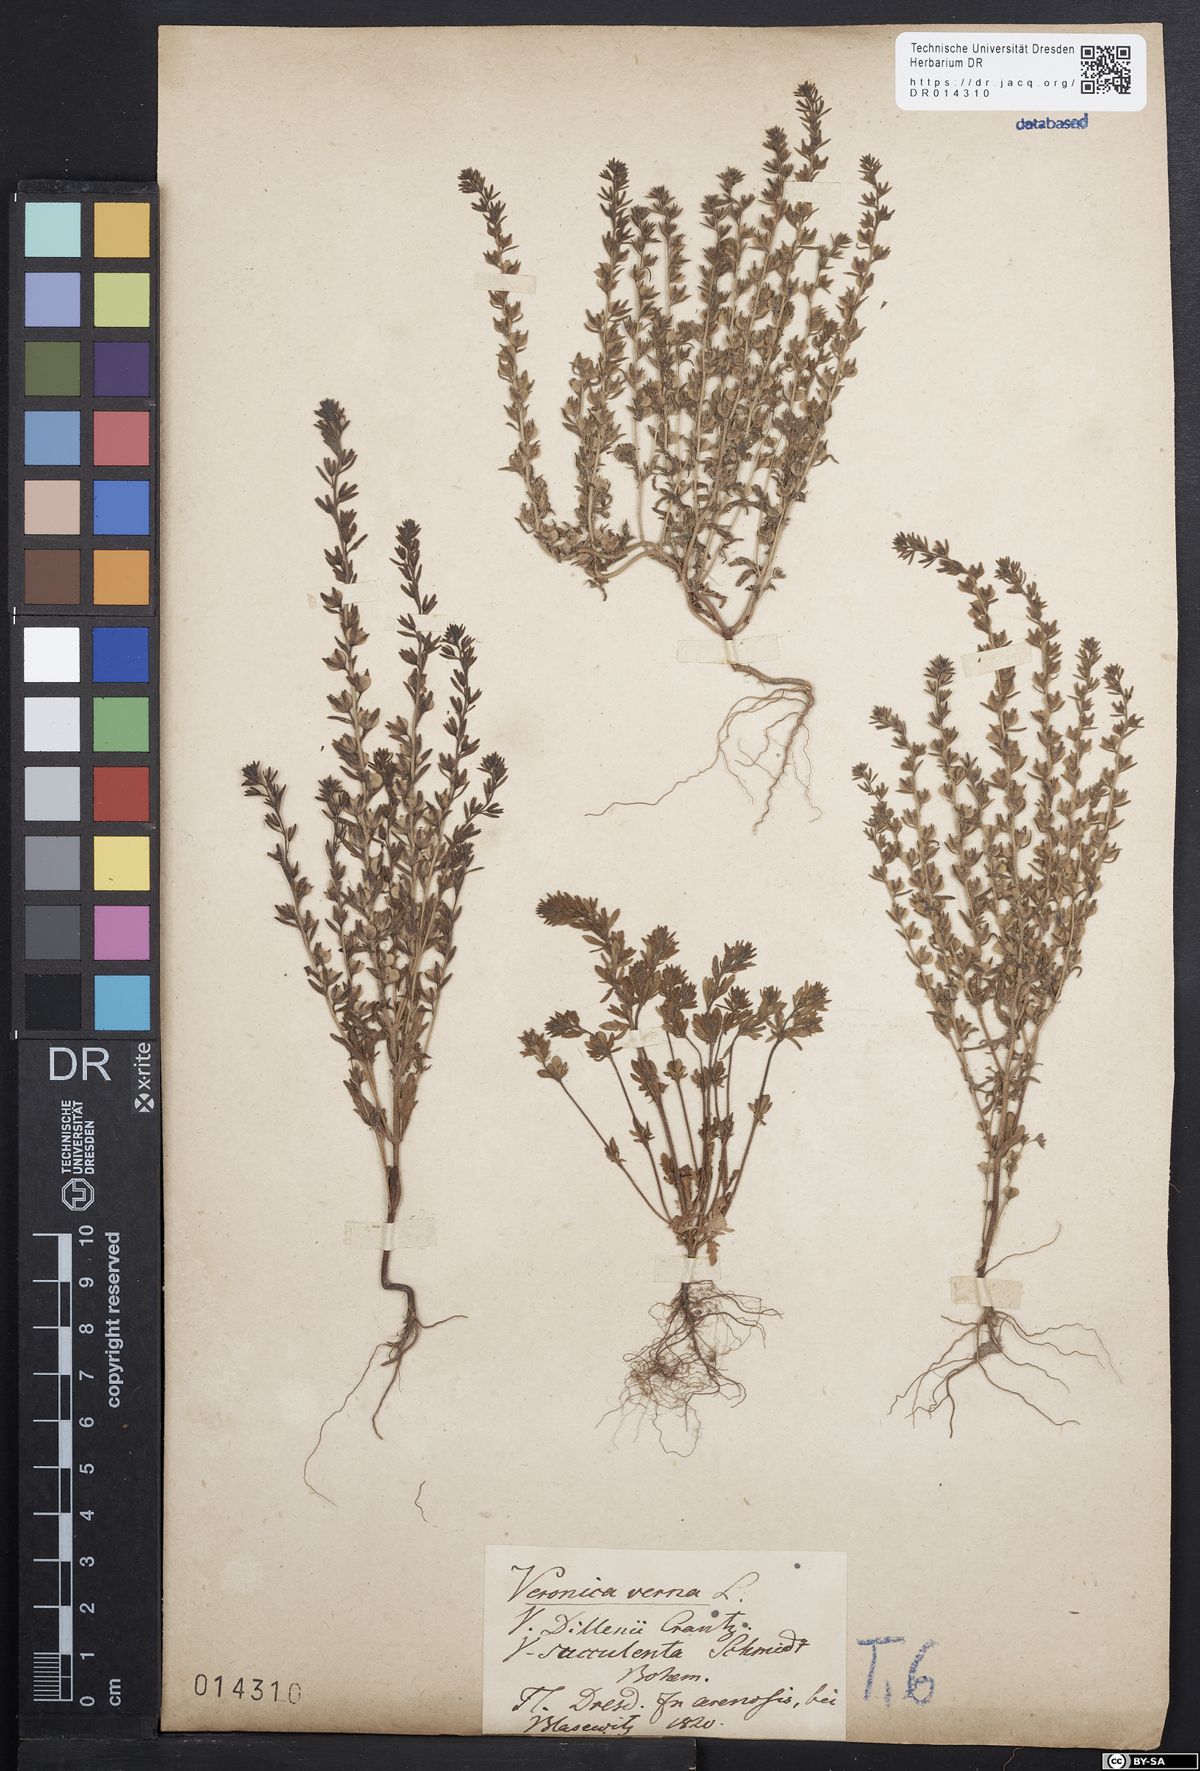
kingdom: Plantae
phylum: Tracheophyta
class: Magnoliopsida
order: Lamiales
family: Plantaginaceae
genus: Veronica
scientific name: Veronica verna
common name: Spring speedwell
